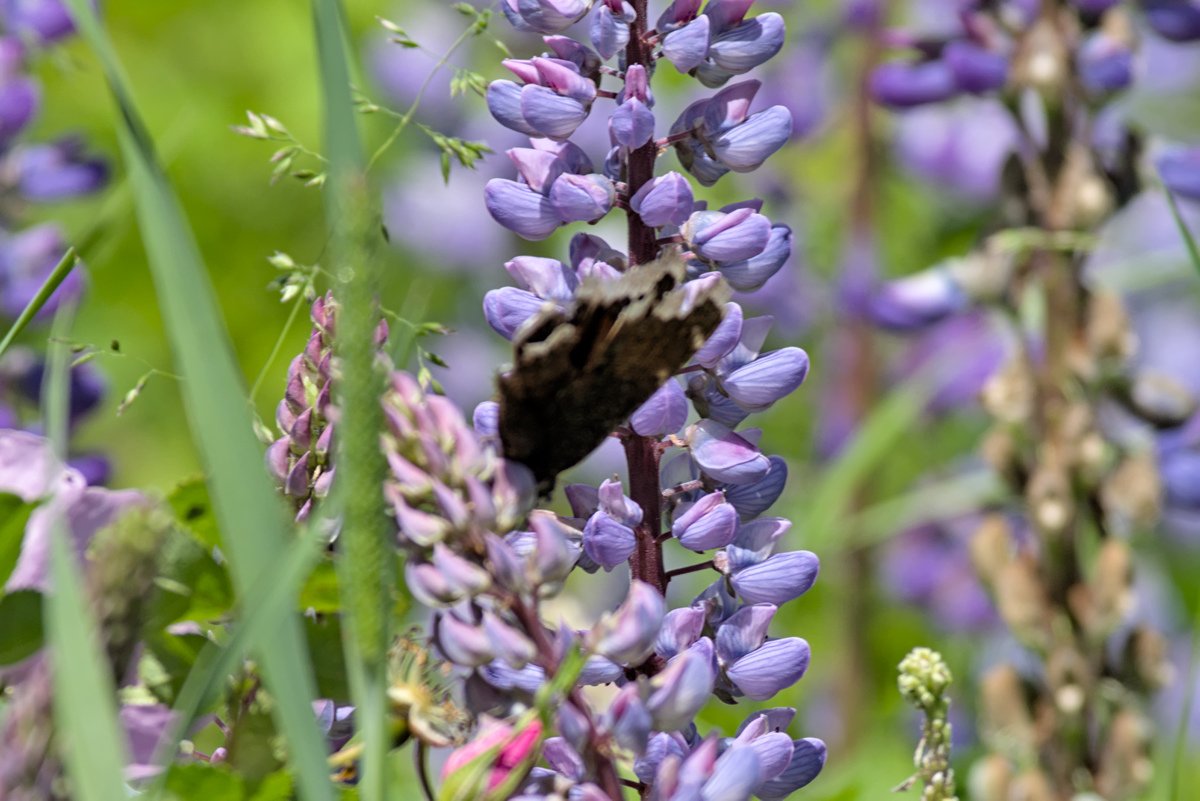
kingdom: Animalia
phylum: Arthropoda
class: Insecta
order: Lepidoptera
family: Nymphalidae
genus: Nymphalis
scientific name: Nymphalis antiopa
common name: Mourning Cloak
